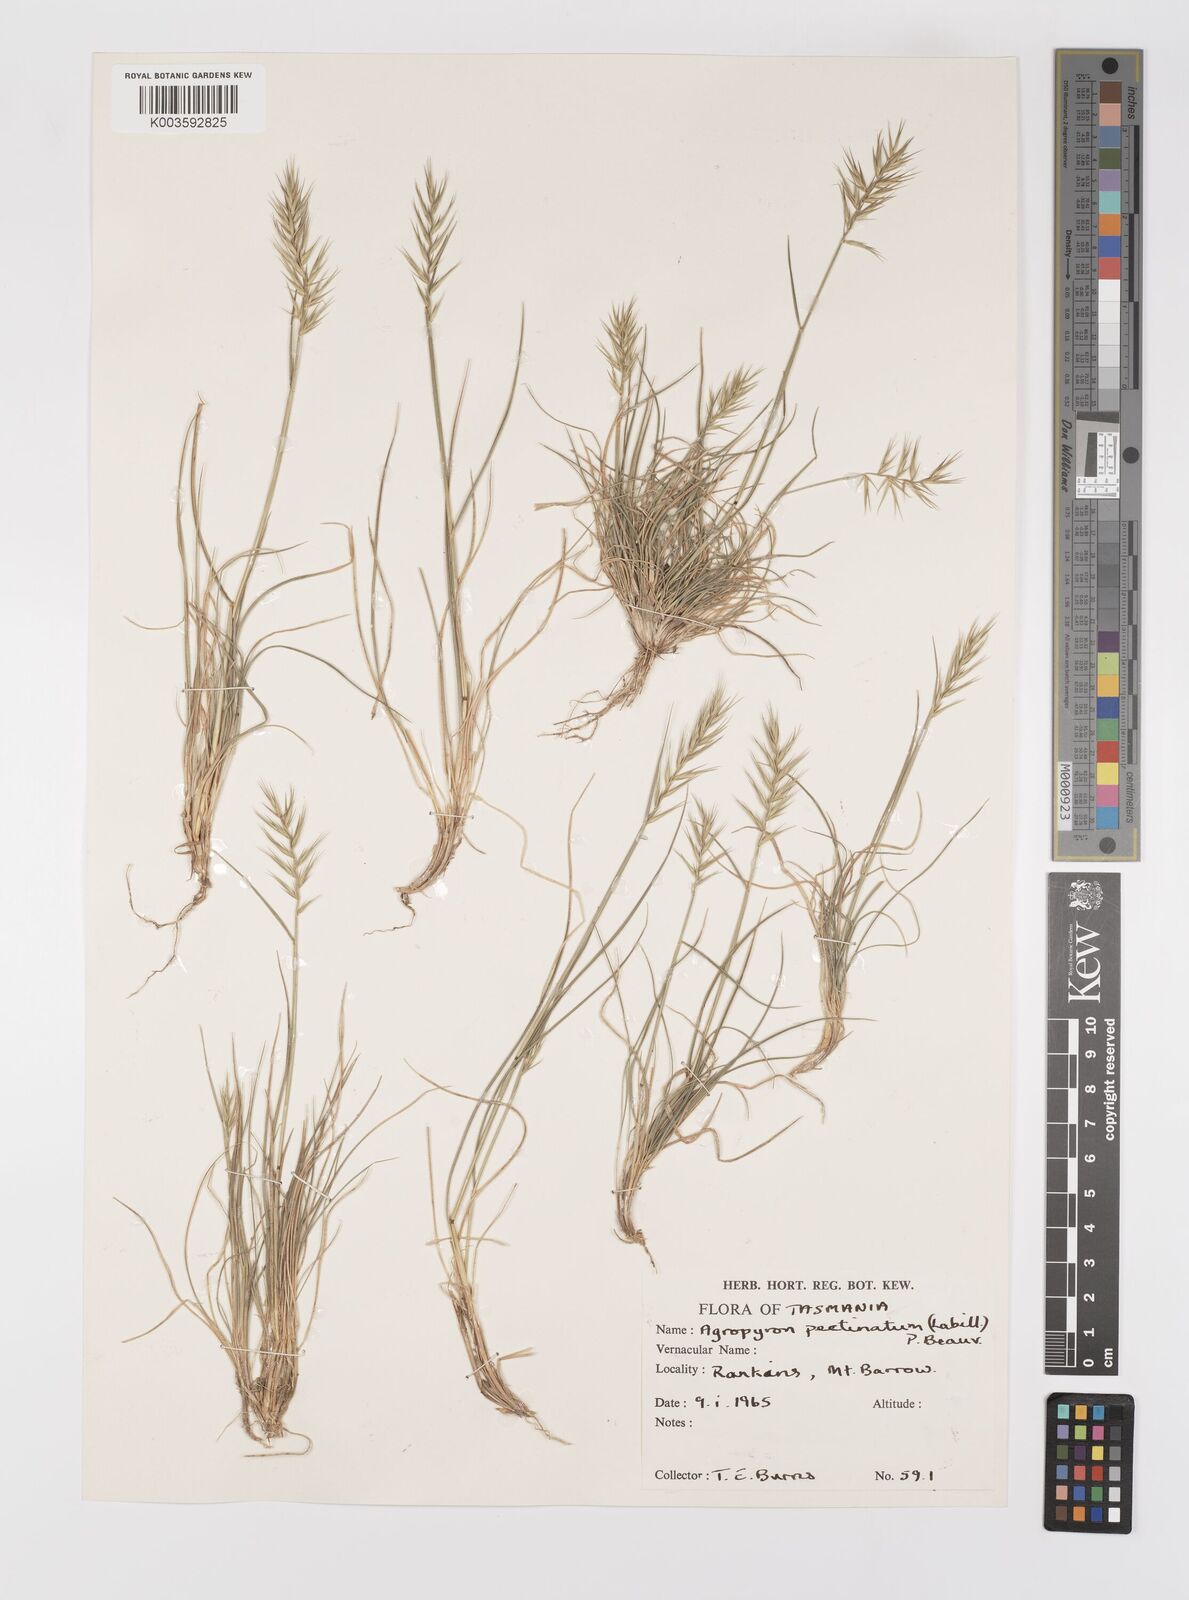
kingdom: Plantae
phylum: Tracheophyta
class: Liliopsida
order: Poales
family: Poaceae
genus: Australopyrum
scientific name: Australopyrum pectinatum
